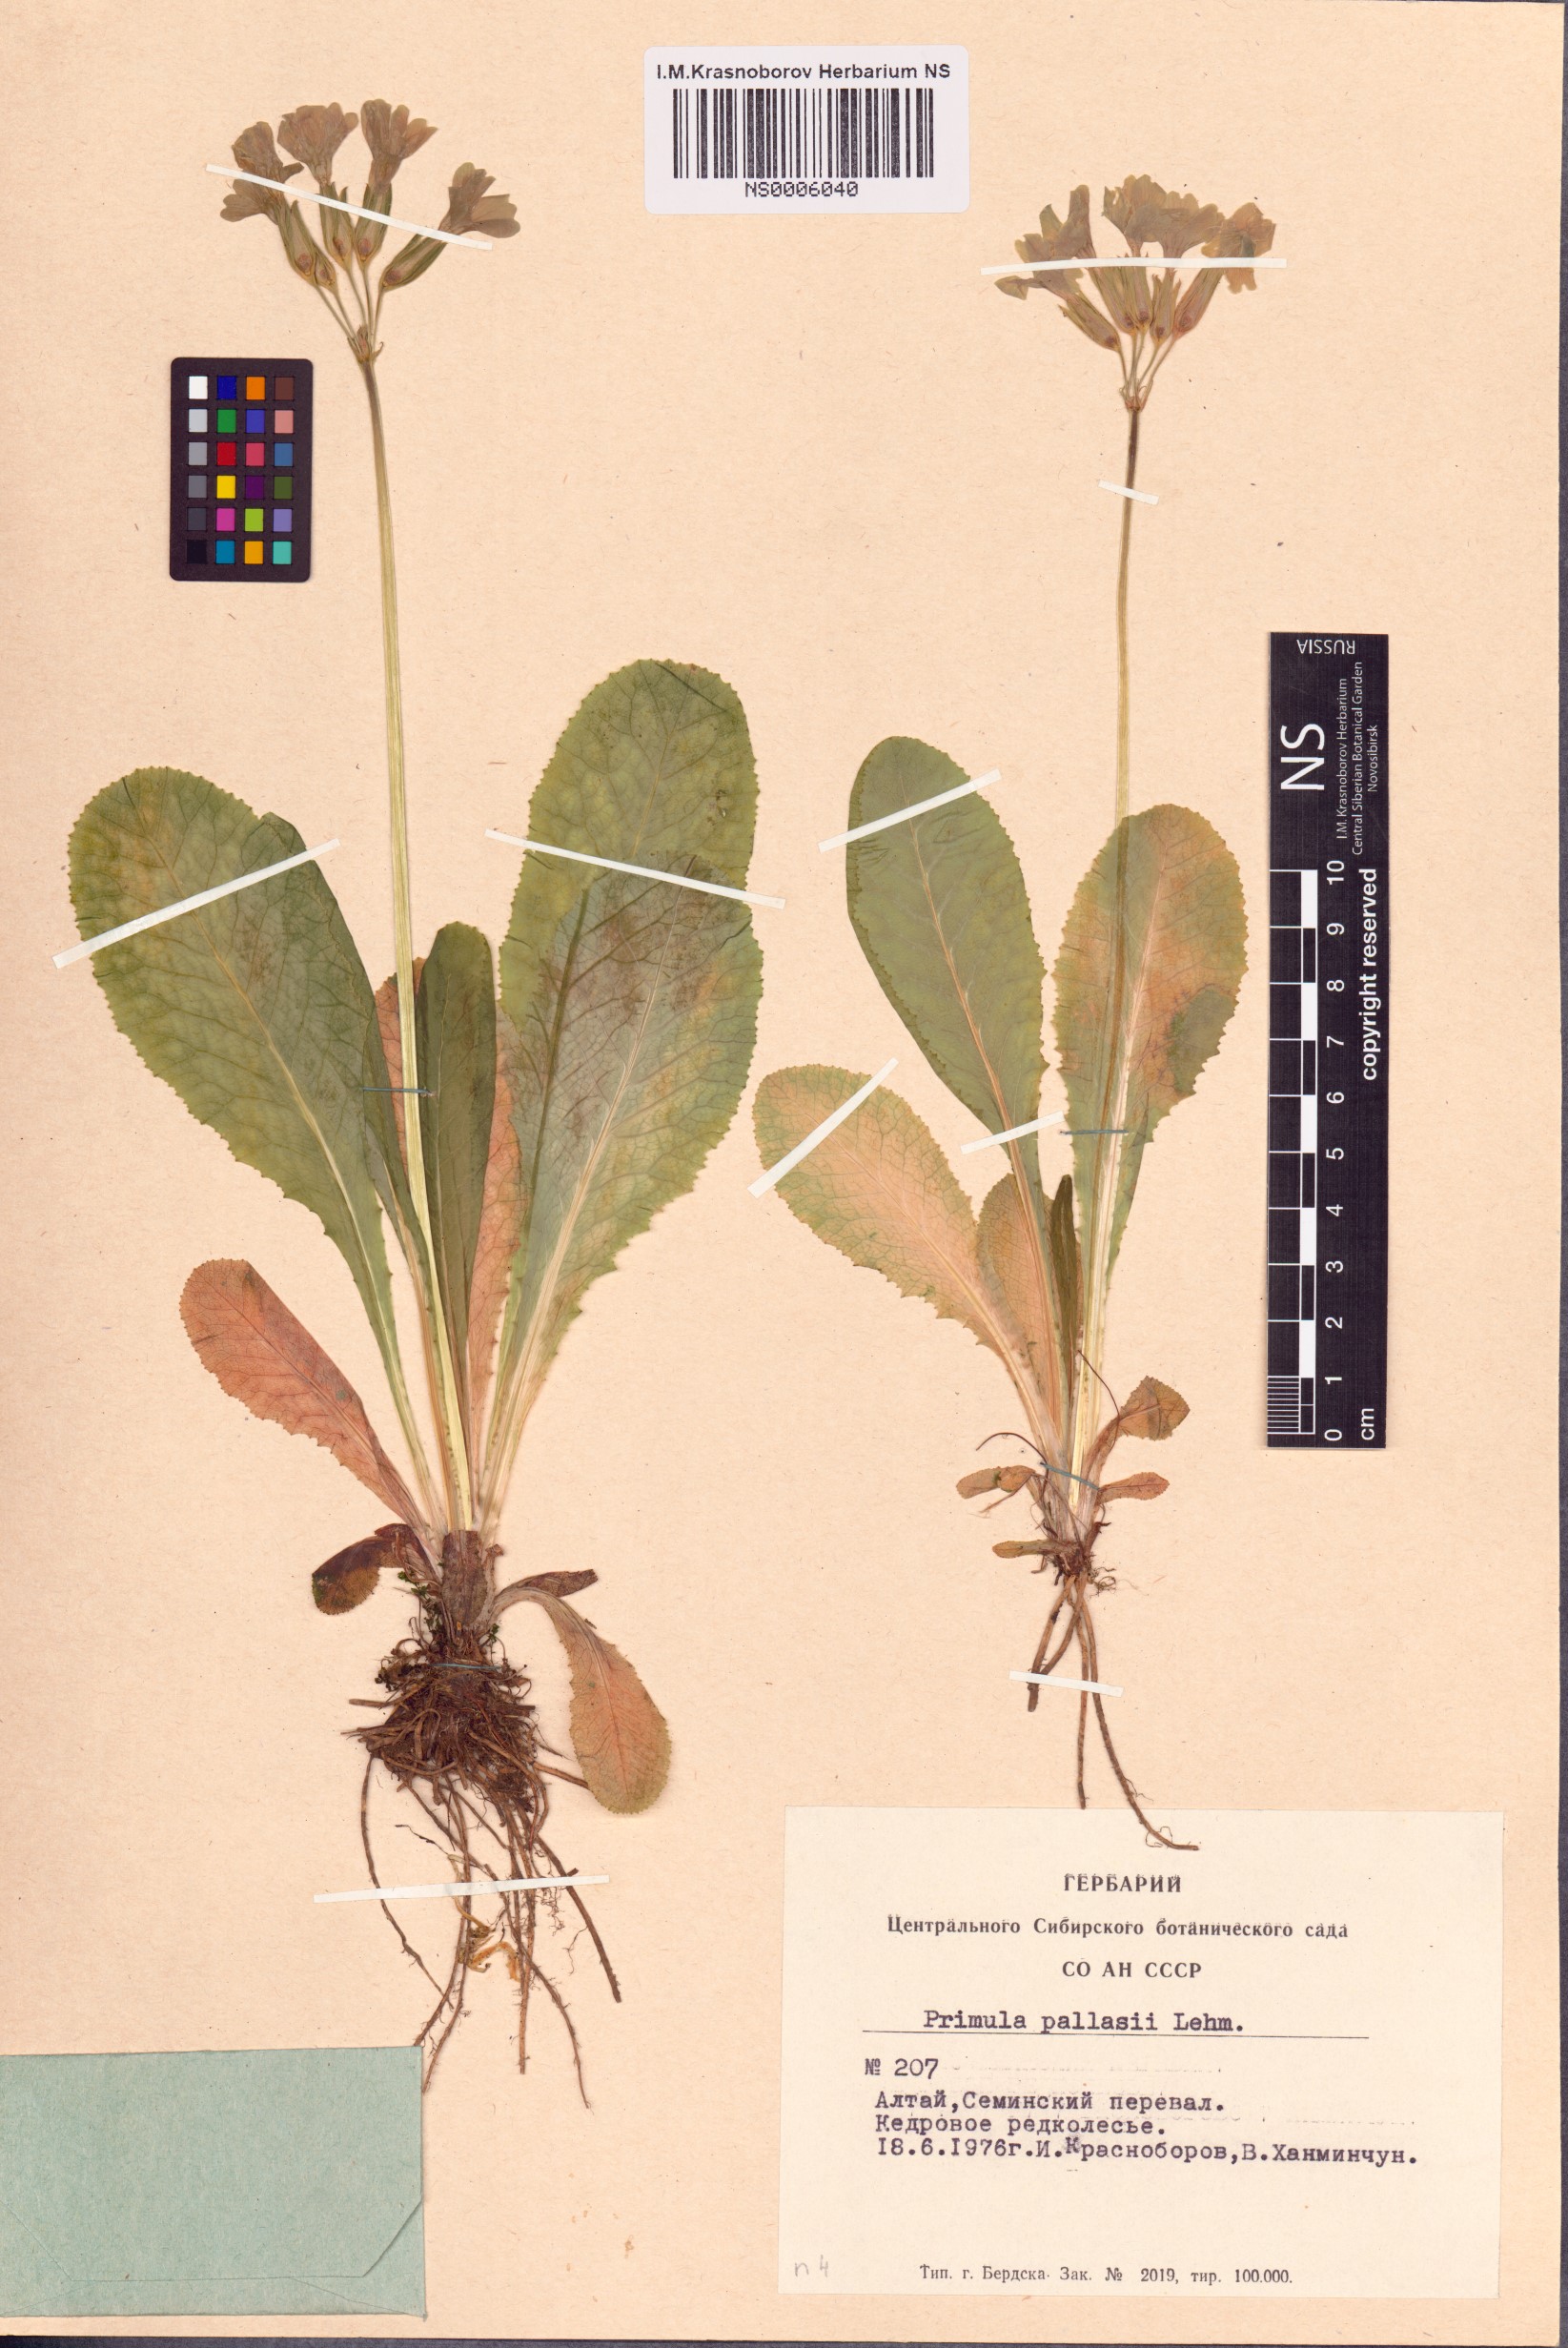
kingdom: Plantae
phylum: Tracheophyta
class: Magnoliopsida
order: Ericales
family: Primulaceae
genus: Primula
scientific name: Primula elatior
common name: Oxlip
